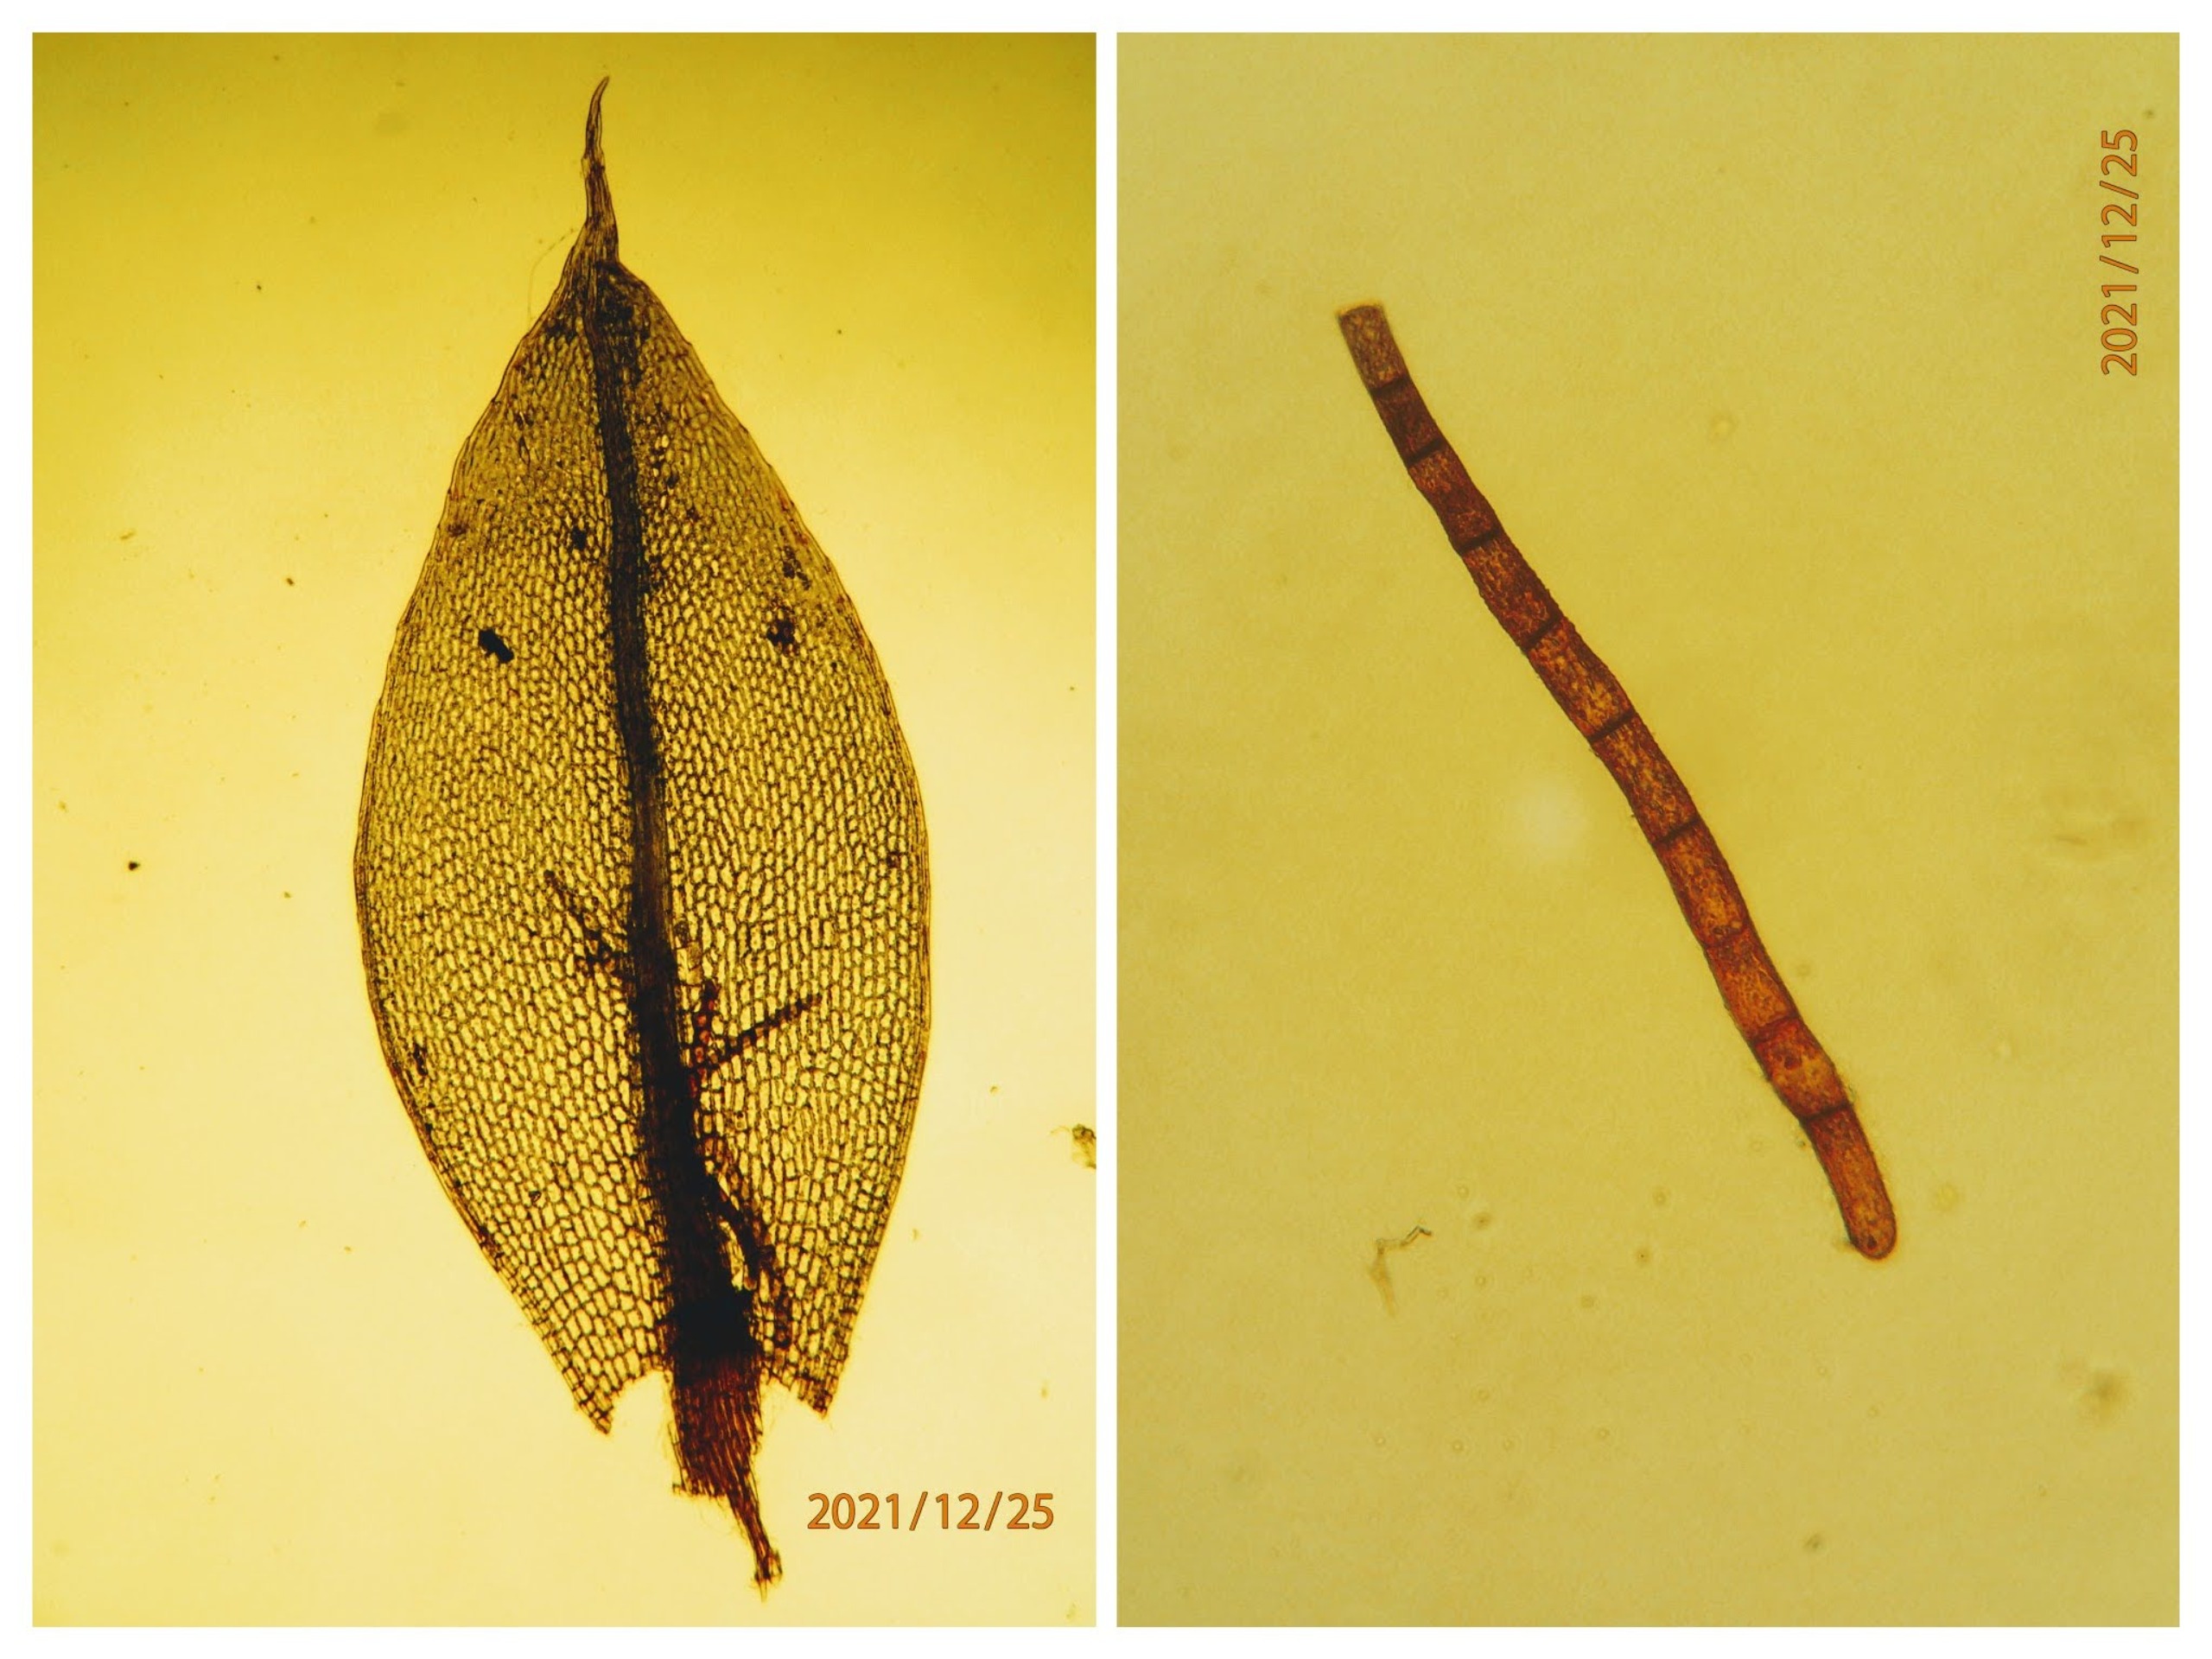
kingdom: Plantae
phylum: Bryophyta
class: Bryopsida
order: Bryales
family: Bryaceae
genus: Rosulabryum
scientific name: Rosulabryum moravicum
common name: Bark-bryum
